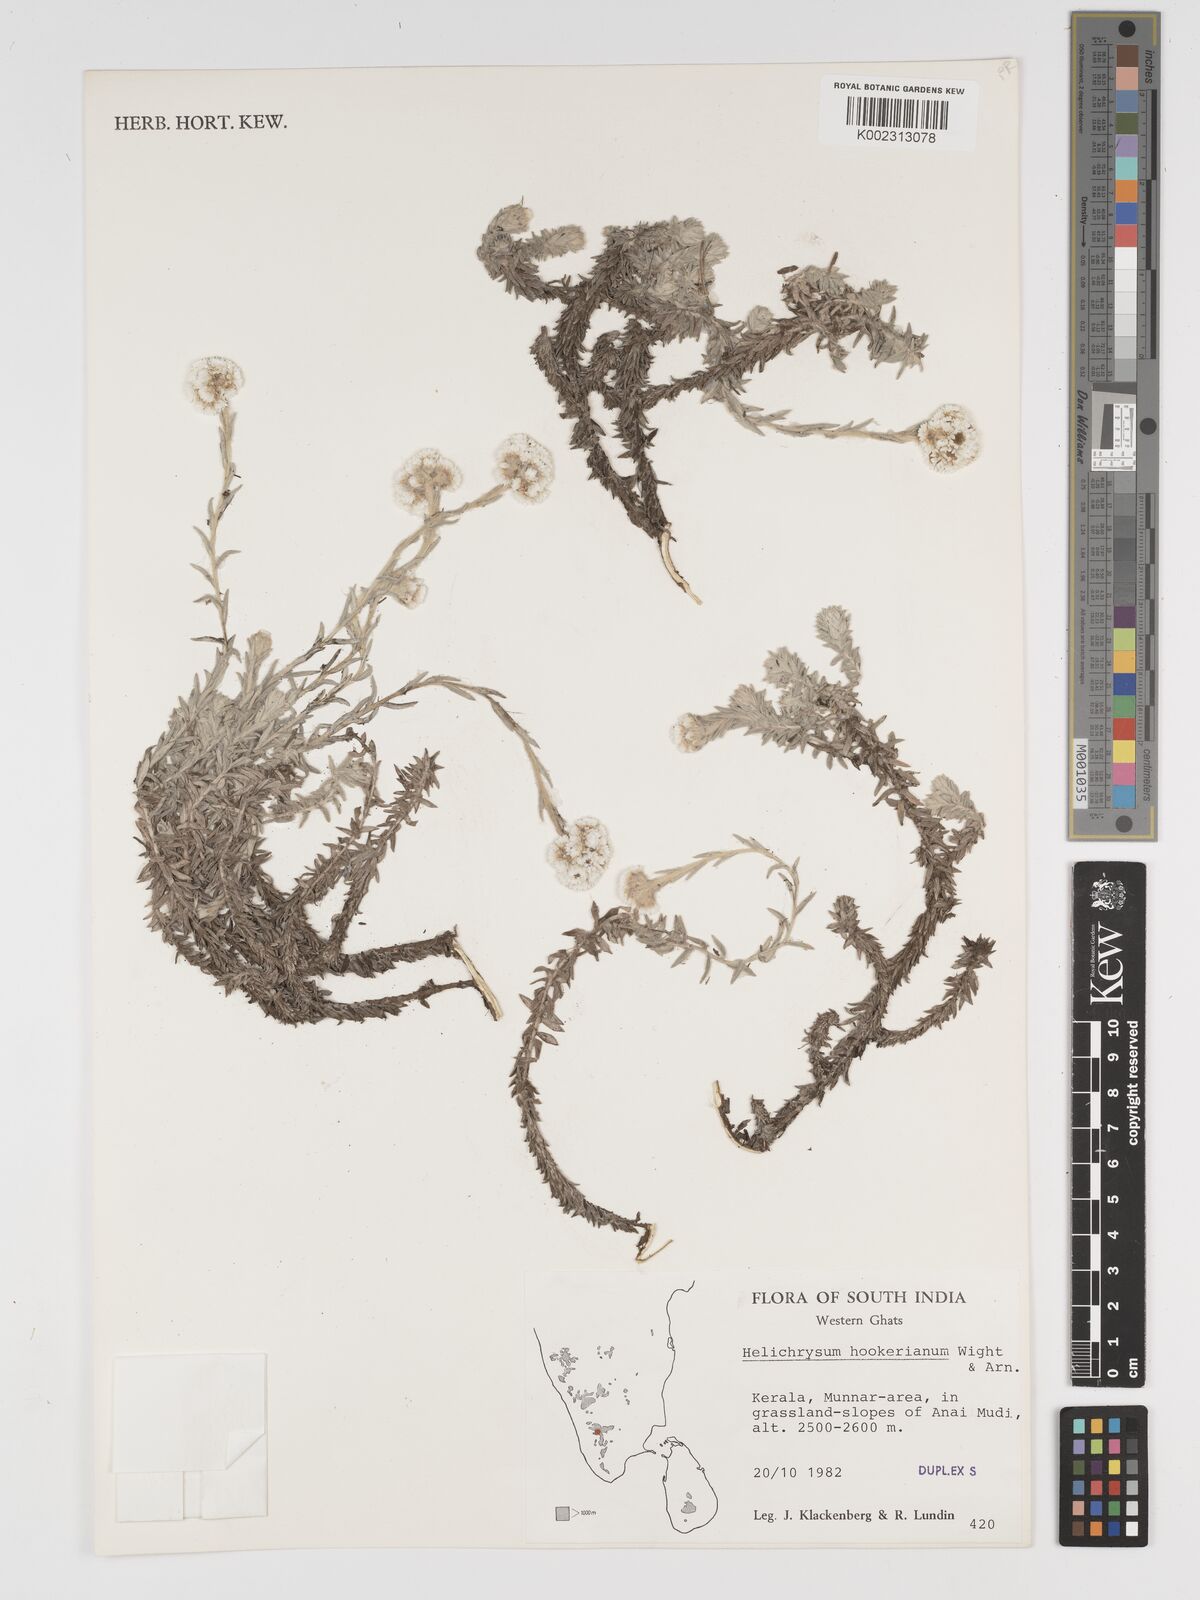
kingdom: Plantae
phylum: Tracheophyta
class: Magnoliopsida
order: Asterales
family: Asteraceae
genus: Helichrysum
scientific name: Helichrysum hookerianum
